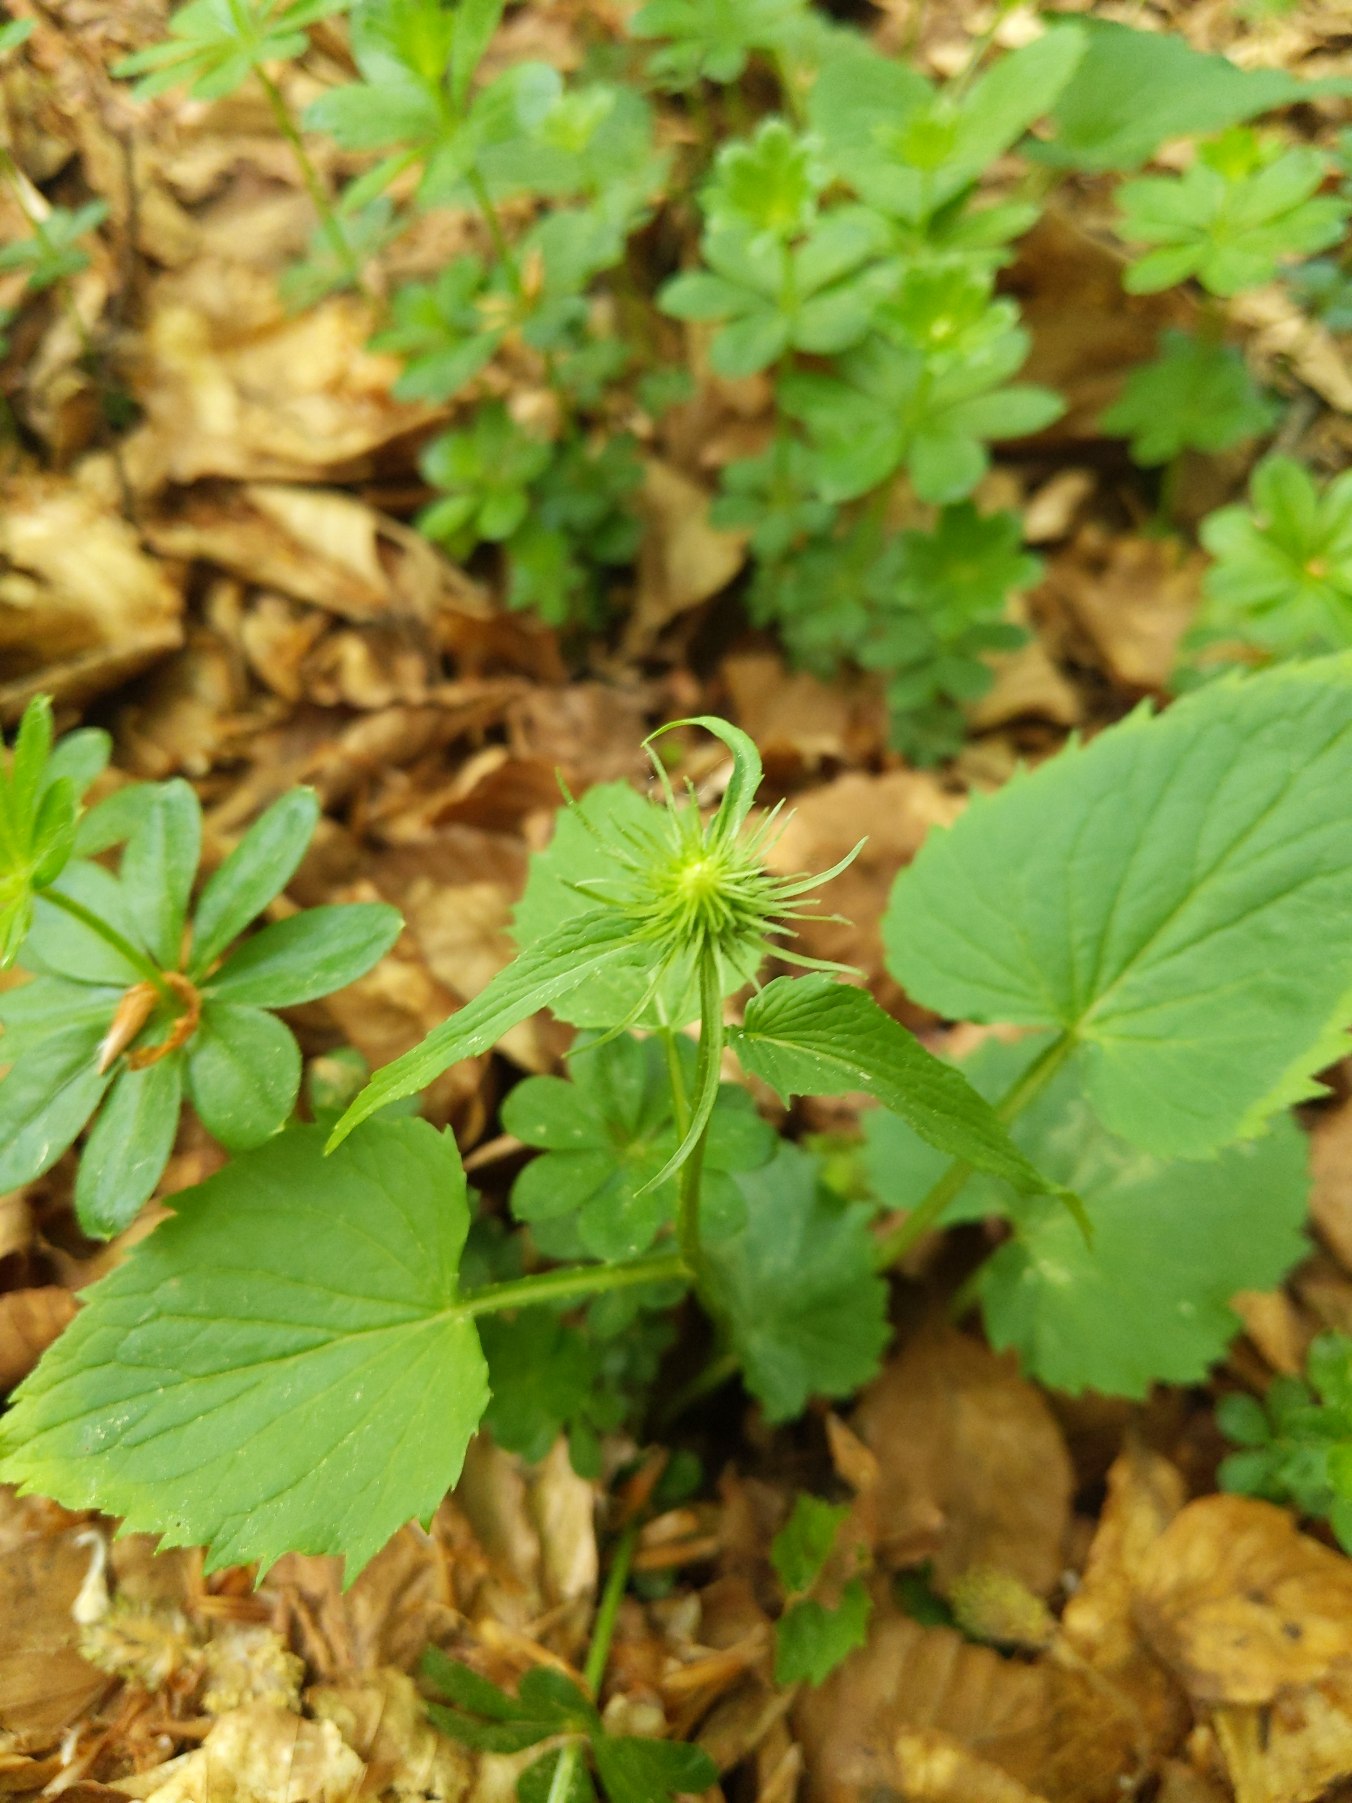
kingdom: Plantae
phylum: Tracheophyta
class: Magnoliopsida
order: Asterales
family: Campanulaceae
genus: Phyteuma
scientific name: Phyteuma spicatum
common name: Aks-rapunsel
